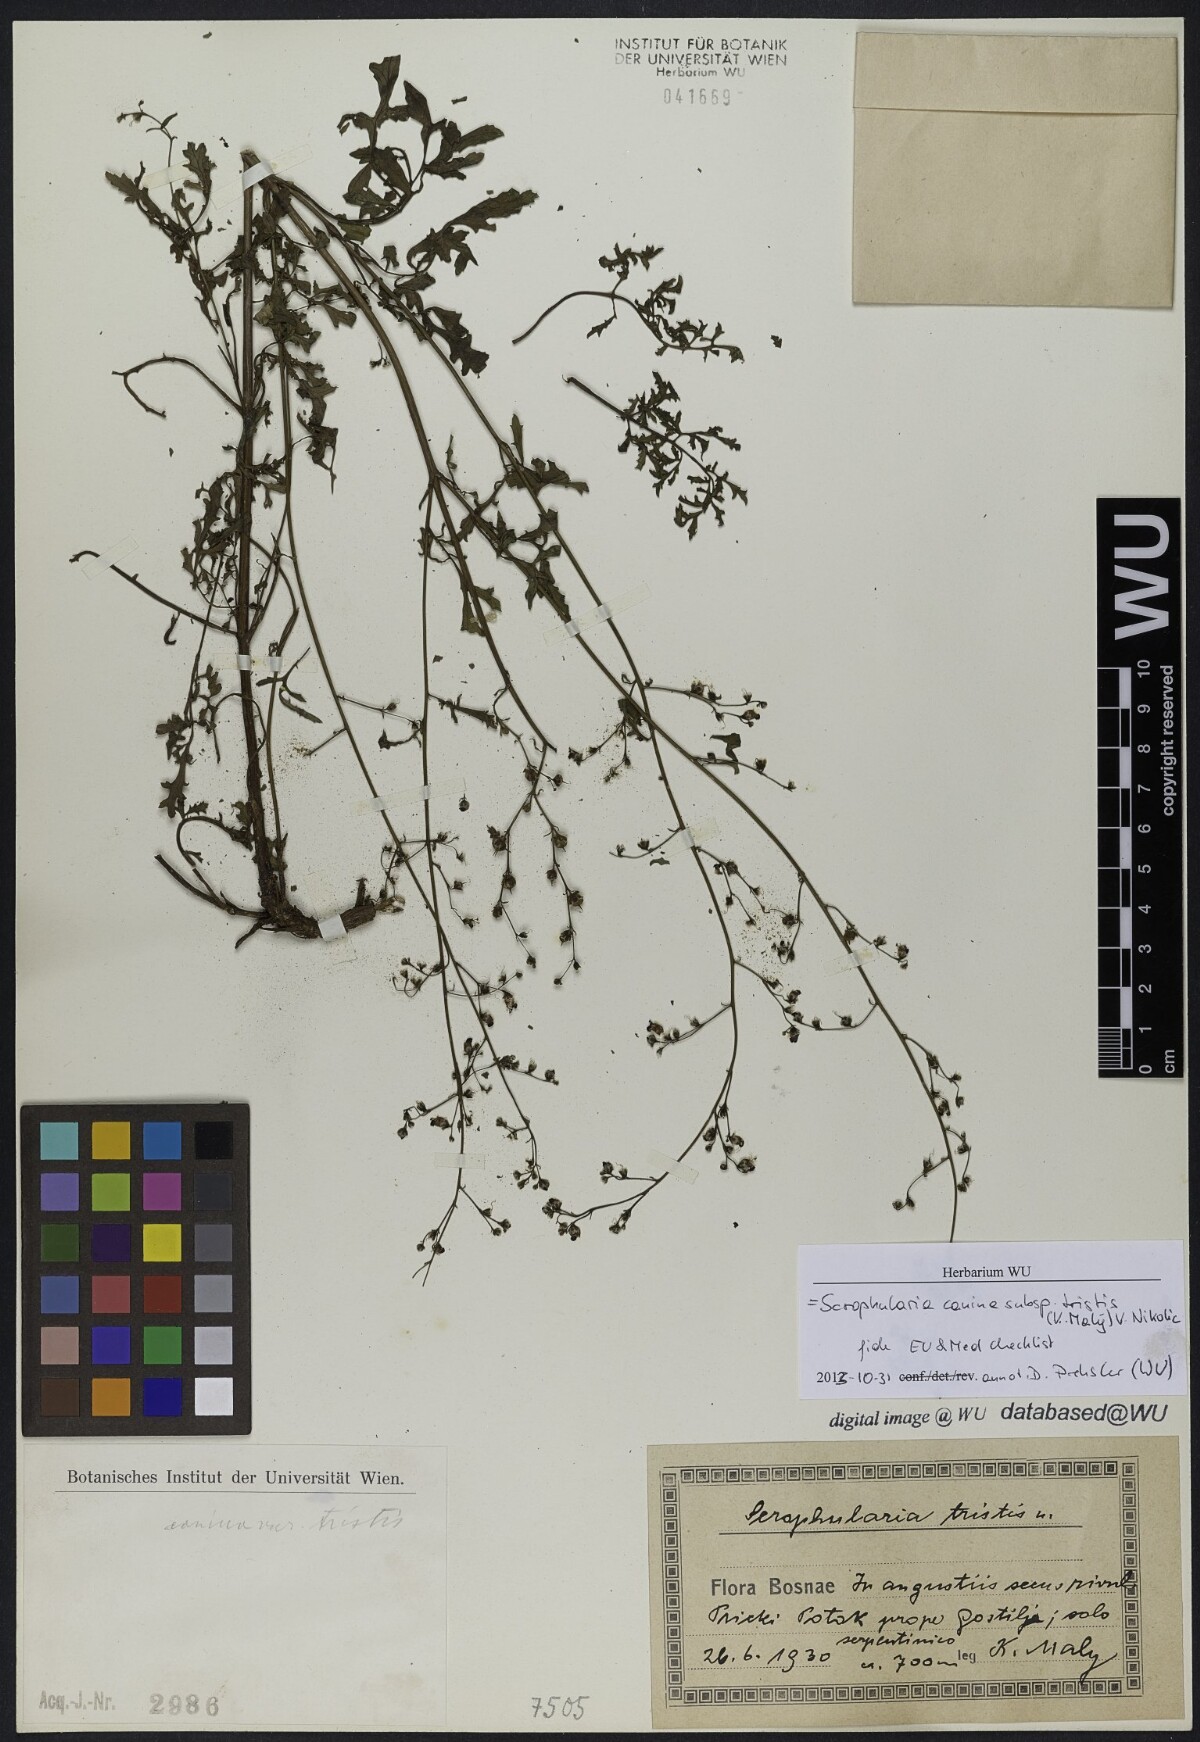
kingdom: Plantae
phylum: Tracheophyta
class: Magnoliopsida
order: Lamiales
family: Scrophulariaceae
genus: Scrophularia
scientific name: Scrophularia canina
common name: French figwort
